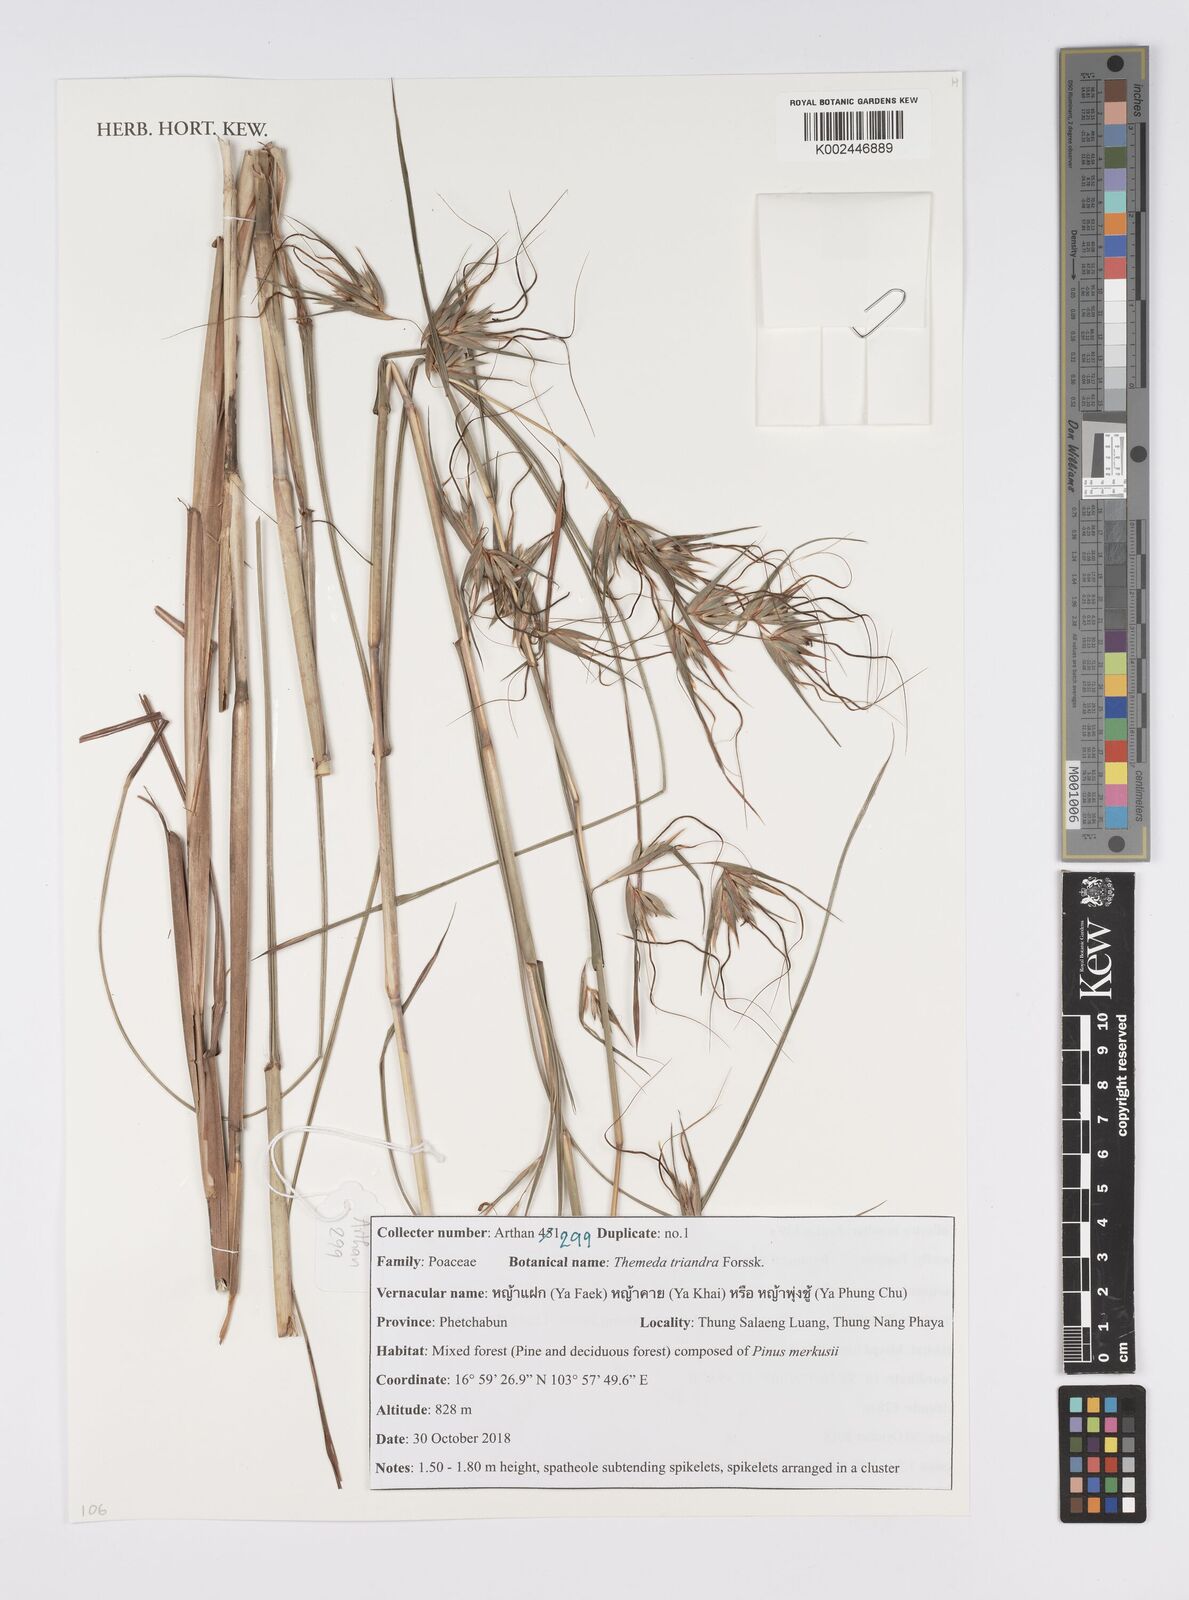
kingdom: Plantae
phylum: Tracheophyta
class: Liliopsida
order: Poales
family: Poaceae
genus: Themeda
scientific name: Themeda triandra
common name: Kangaroo grass
